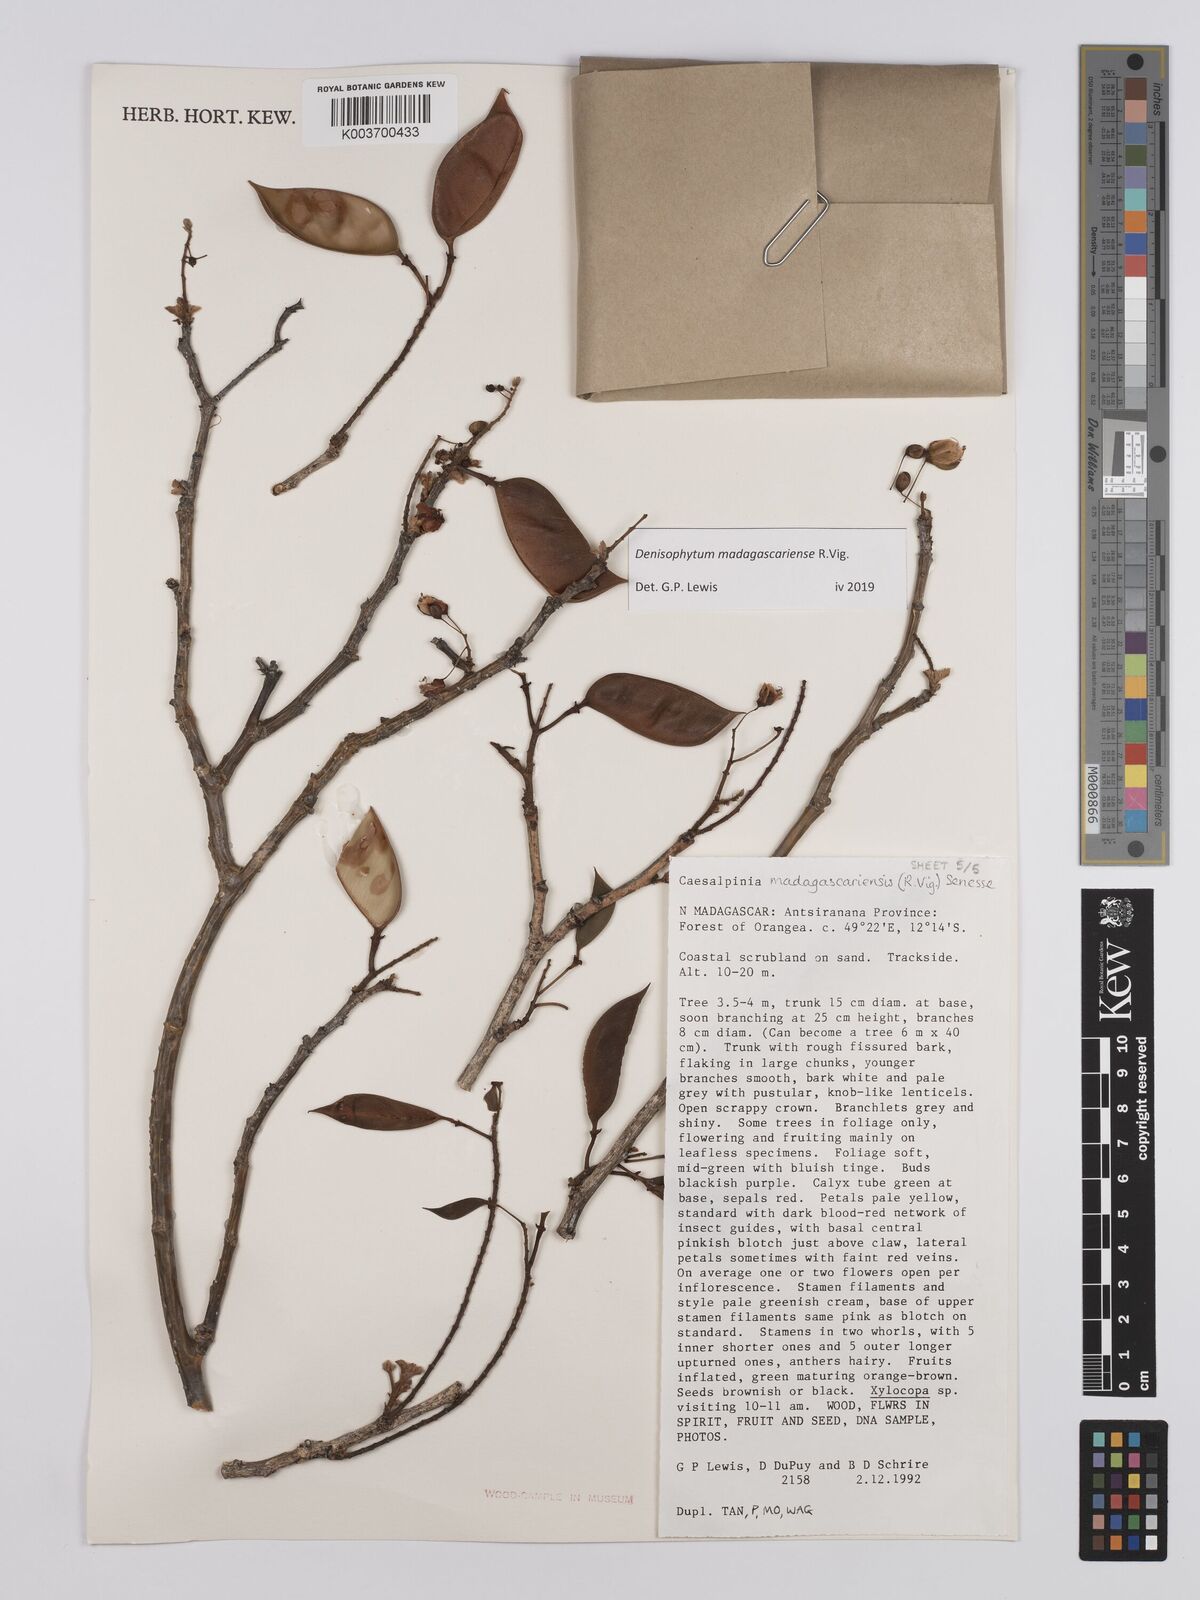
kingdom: Plantae
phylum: Tracheophyta
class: Magnoliopsida
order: Fabales
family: Fabaceae
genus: Denisophytum
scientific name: Denisophytum madagascariense
